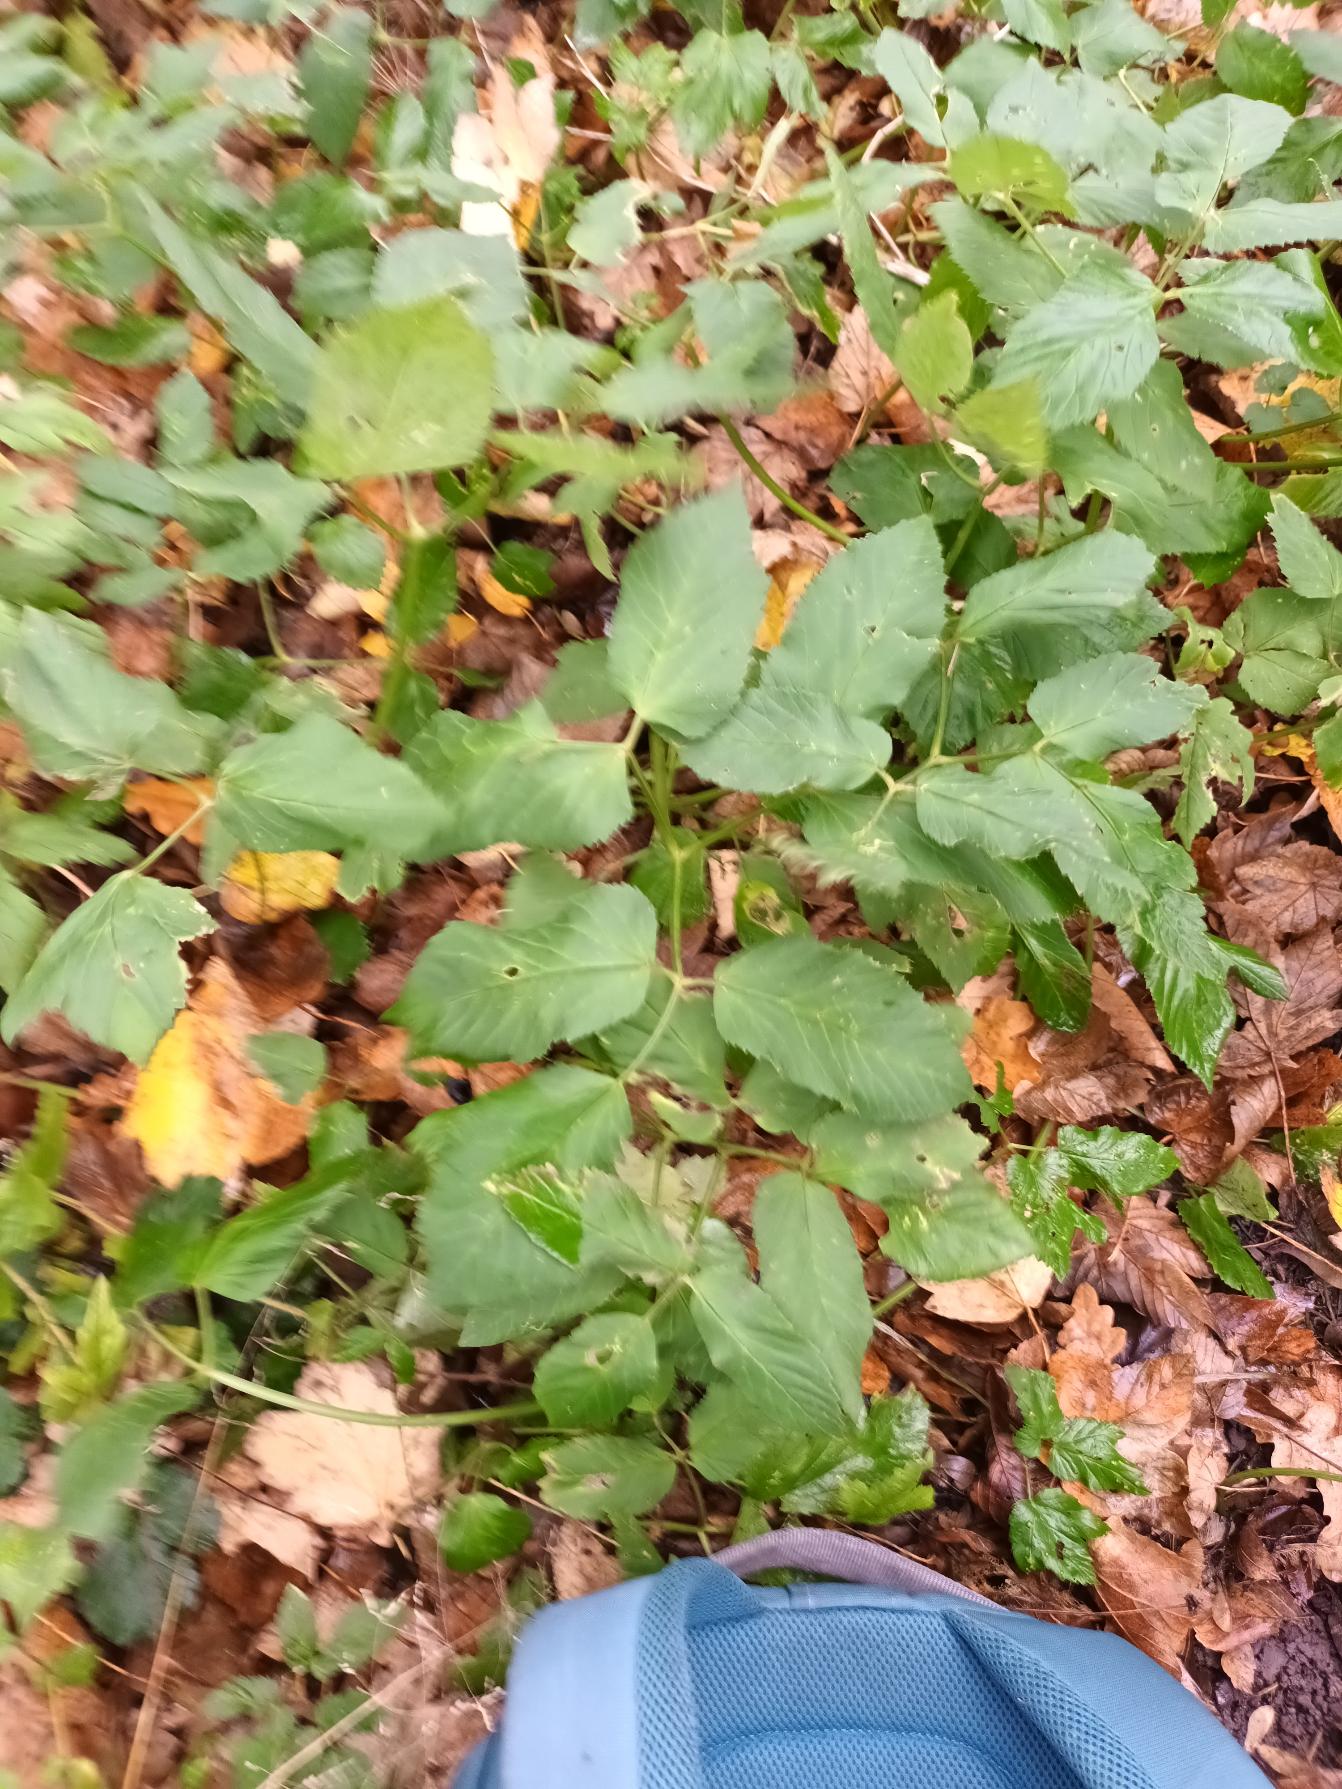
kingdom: Plantae
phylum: Tracheophyta
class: Magnoliopsida
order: Apiales
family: Apiaceae
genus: Aegopodium
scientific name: Aegopodium podagraria
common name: Skvalderkål
